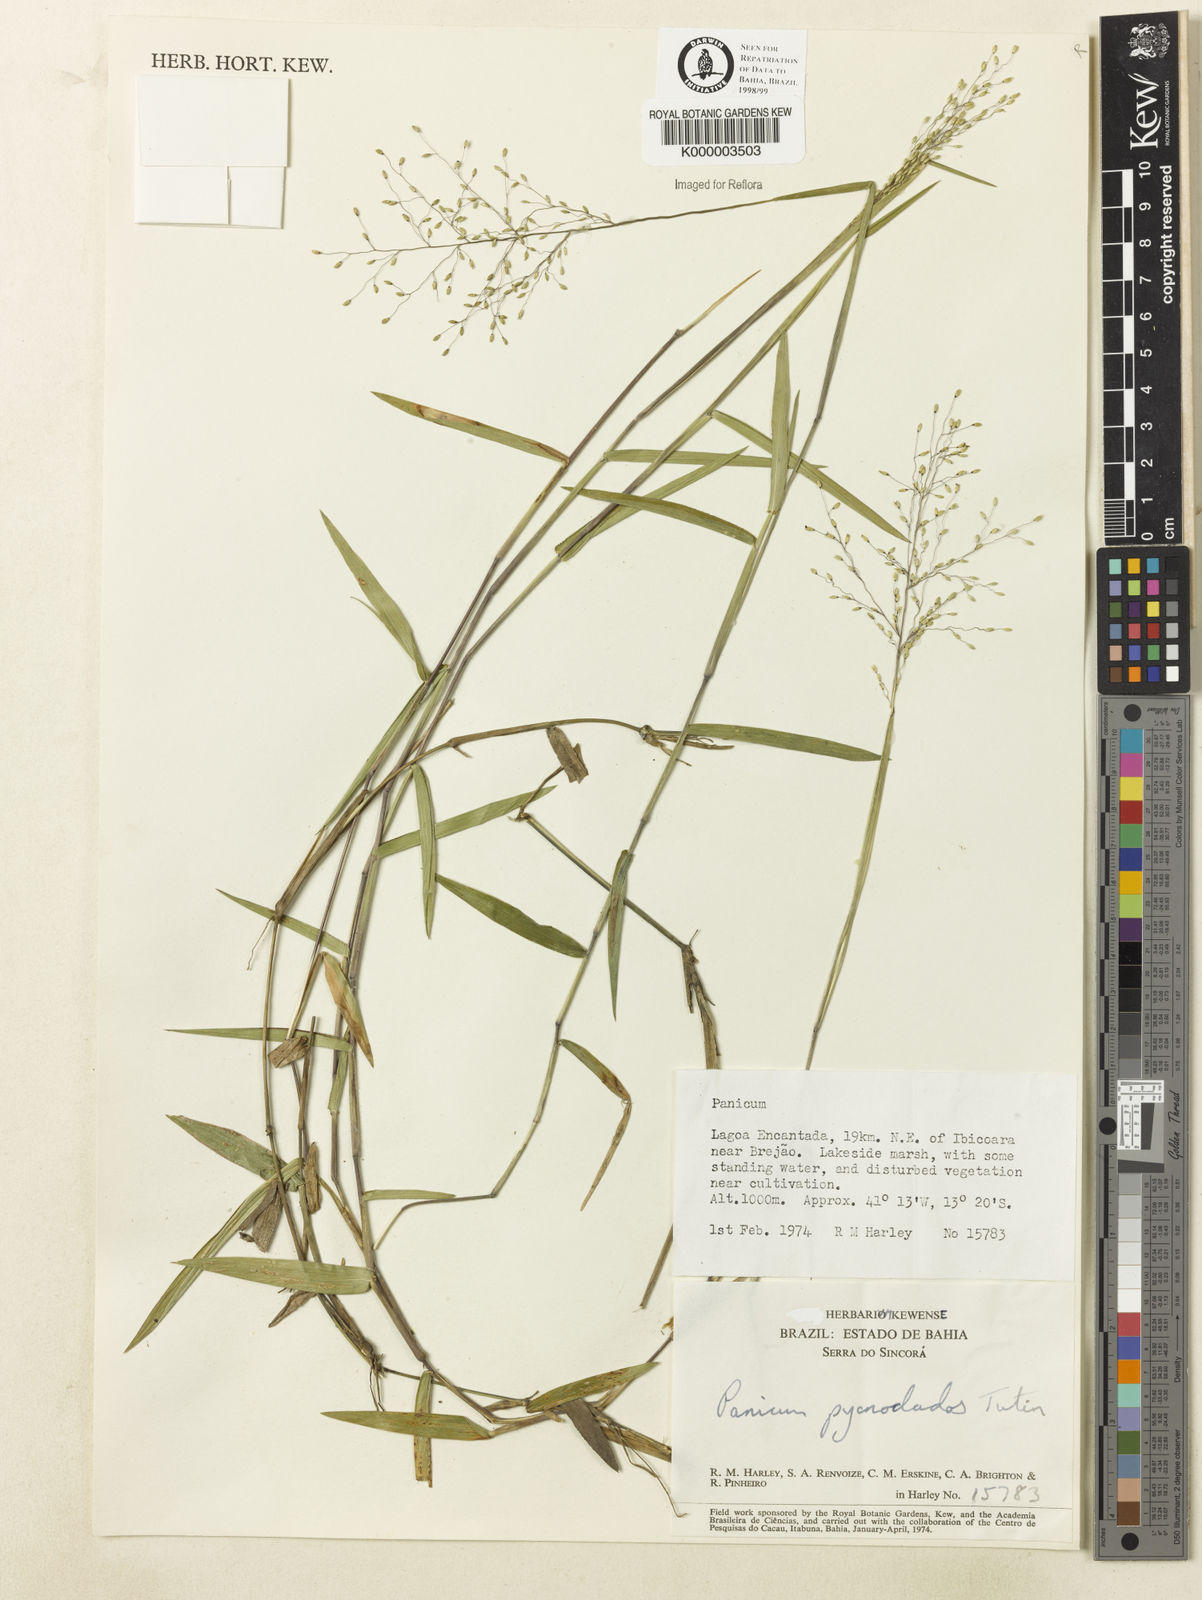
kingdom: Plantae
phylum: Tracheophyta
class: Liliopsida
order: Poales
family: Poaceae
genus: Dichanthelium
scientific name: Dichanthelium pycnoclados
